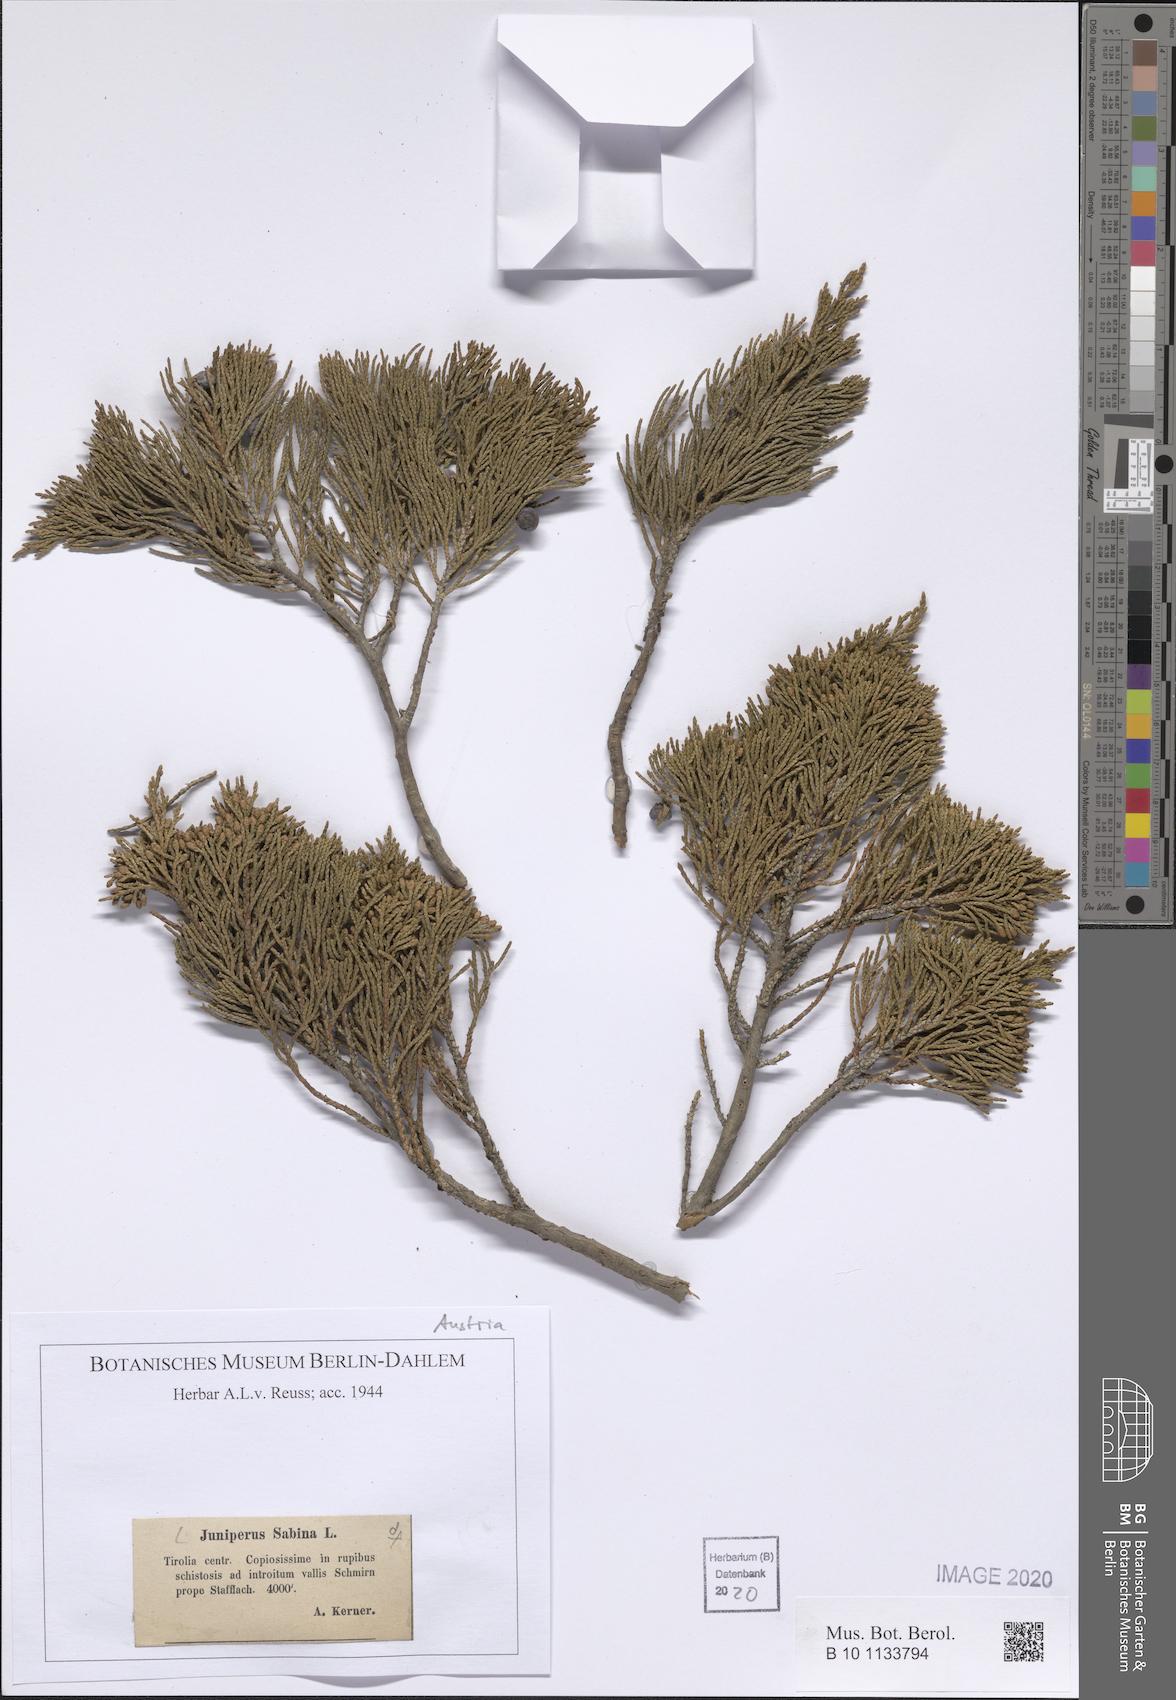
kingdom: Plantae
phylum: Tracheophyta
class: Pinopsida
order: Pinales
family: Cupressaceae
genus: Juniperus
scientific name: Juniperus sabina
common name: Savin
